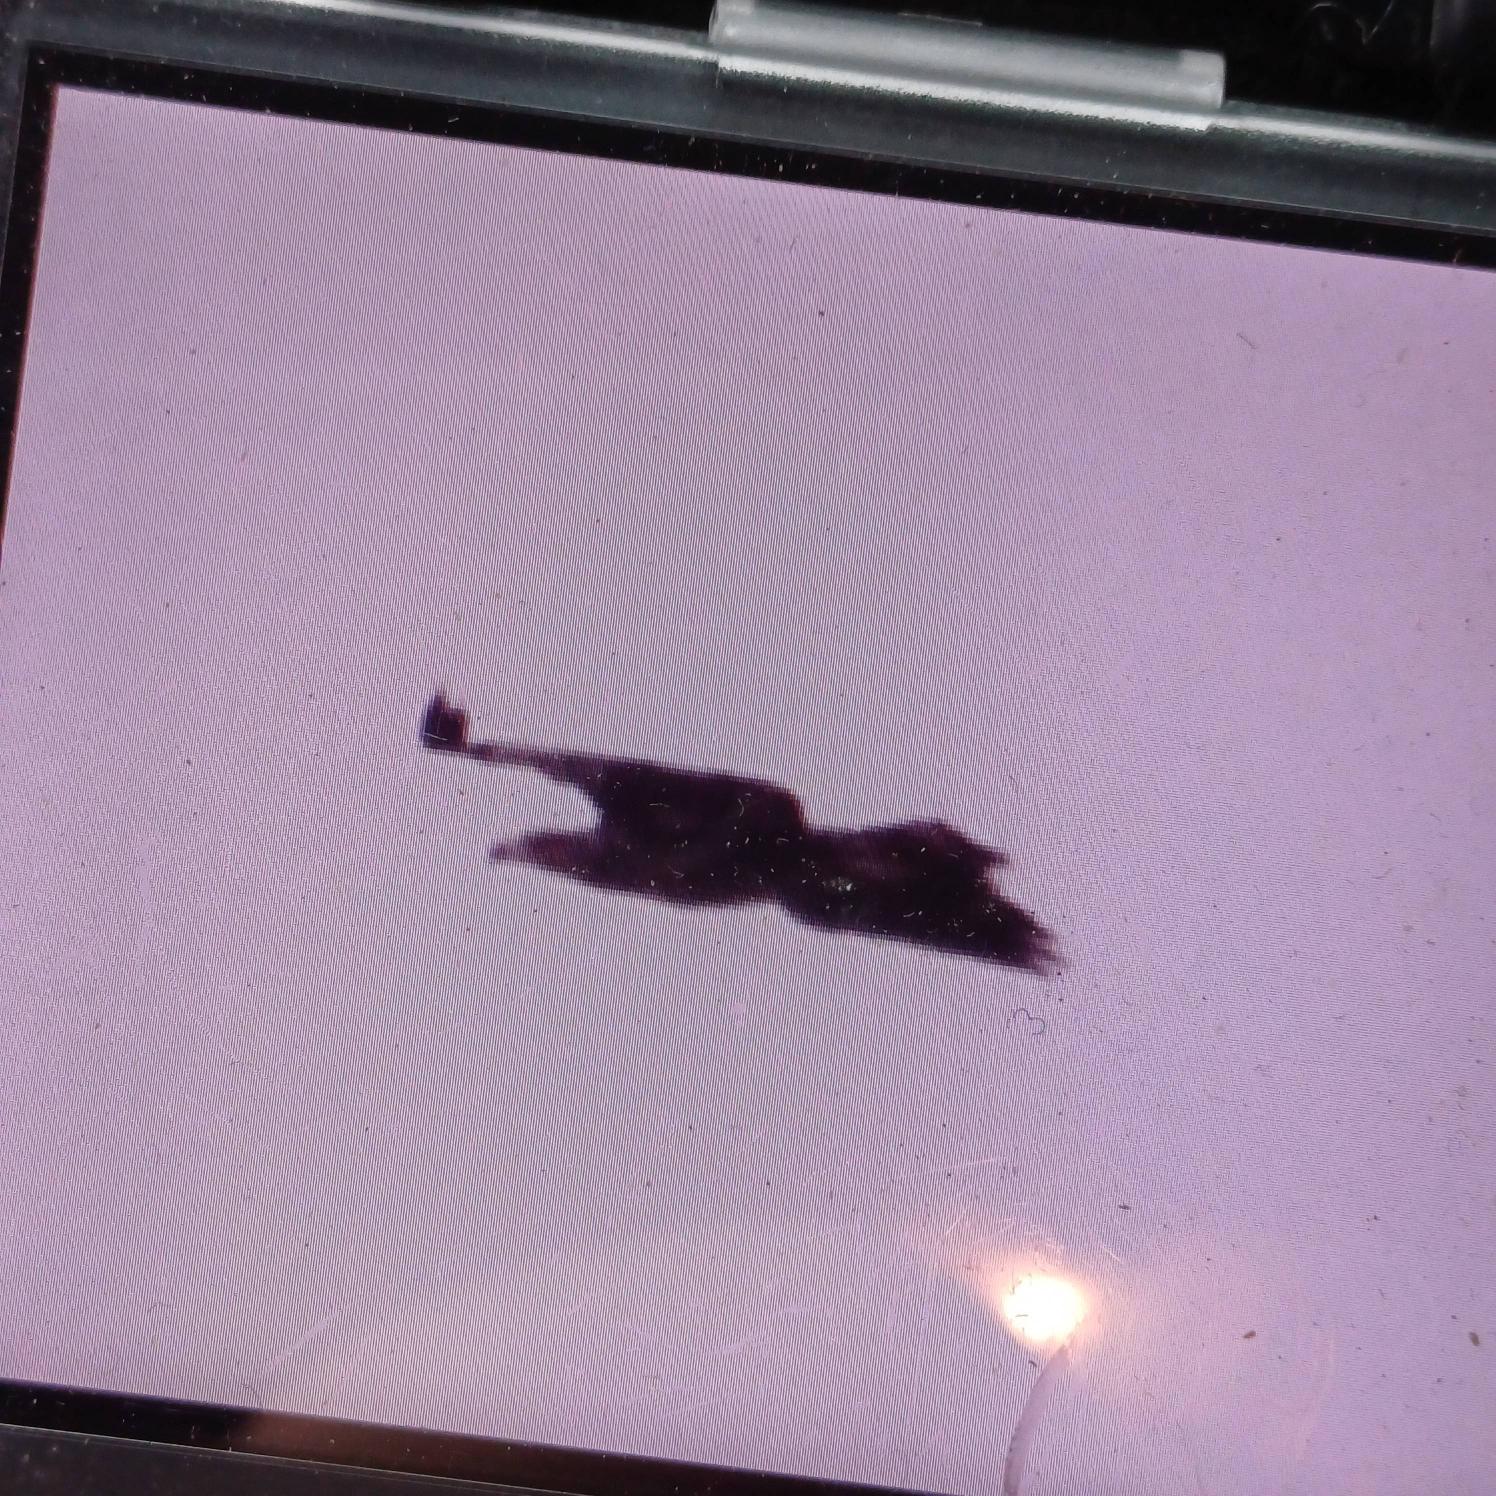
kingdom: Animalia
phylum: Chordata
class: Aves
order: Accipitriformes
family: Accipitridae
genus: Haliaeetus
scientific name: Haliaeetus albicilla
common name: Havørn
